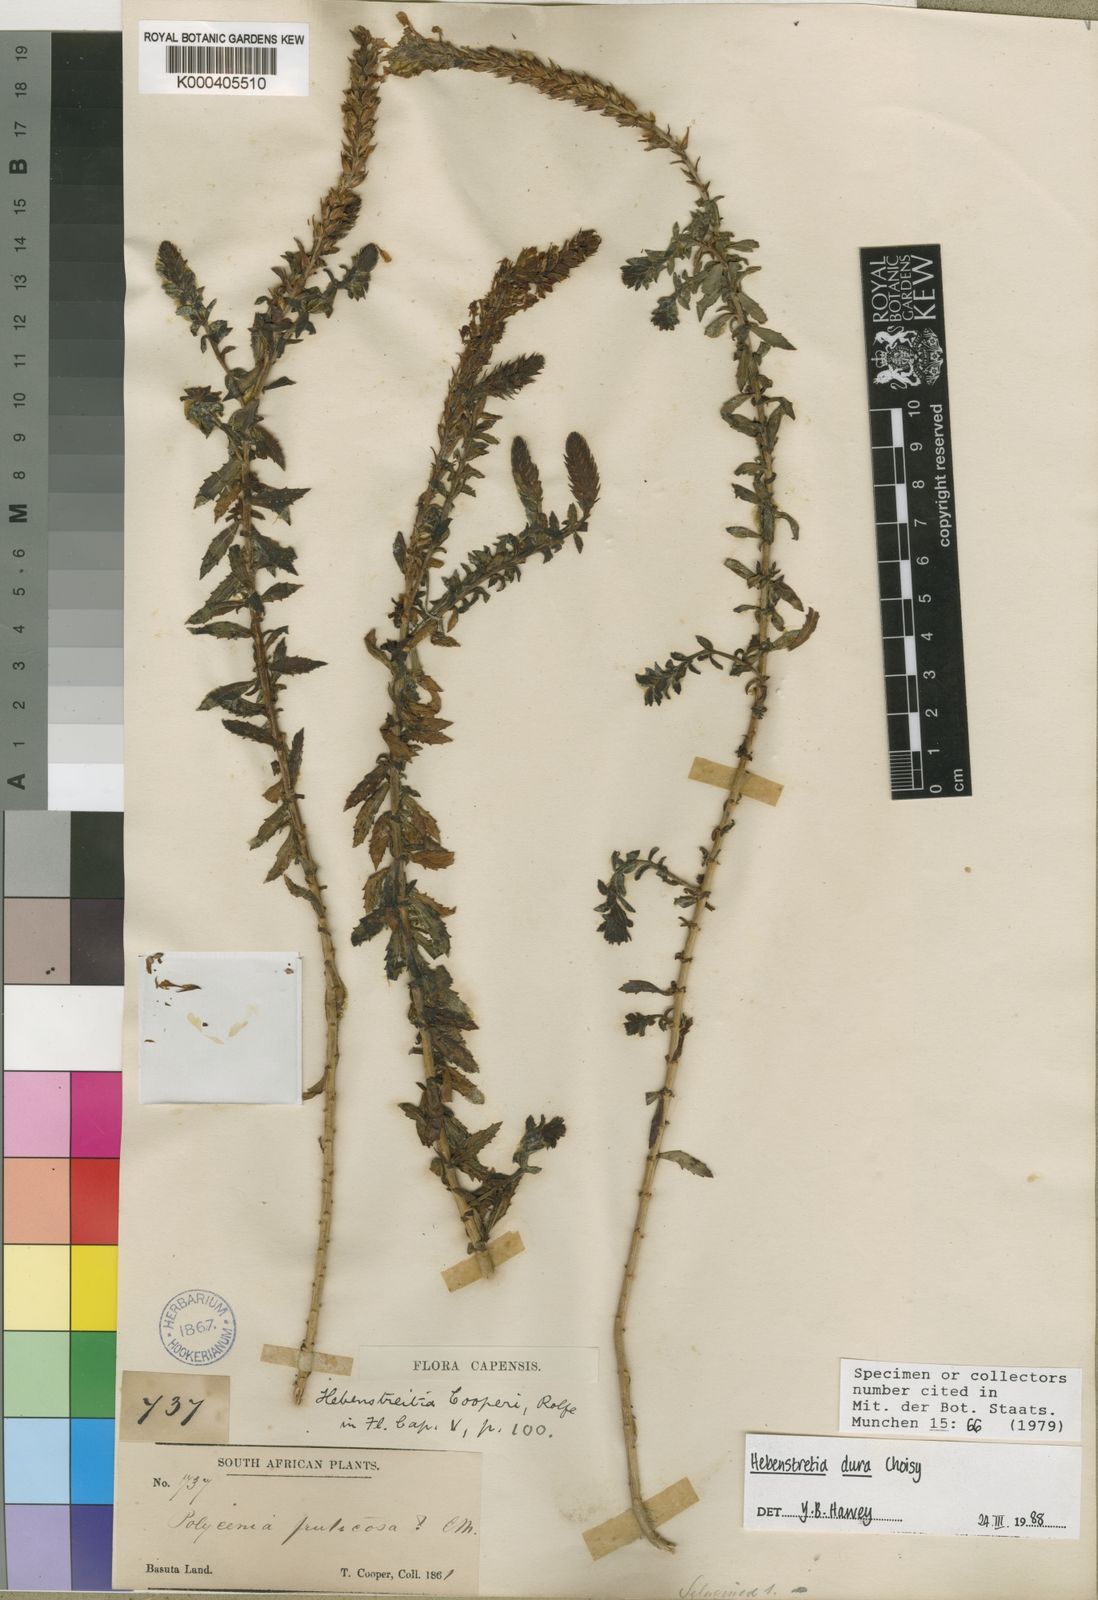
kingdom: Plantae
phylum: Tracheophyta
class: Magnoliopsida
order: Lamiales
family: Scrophulariaceae
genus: Hebenstretia
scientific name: Hebenstretia dura
